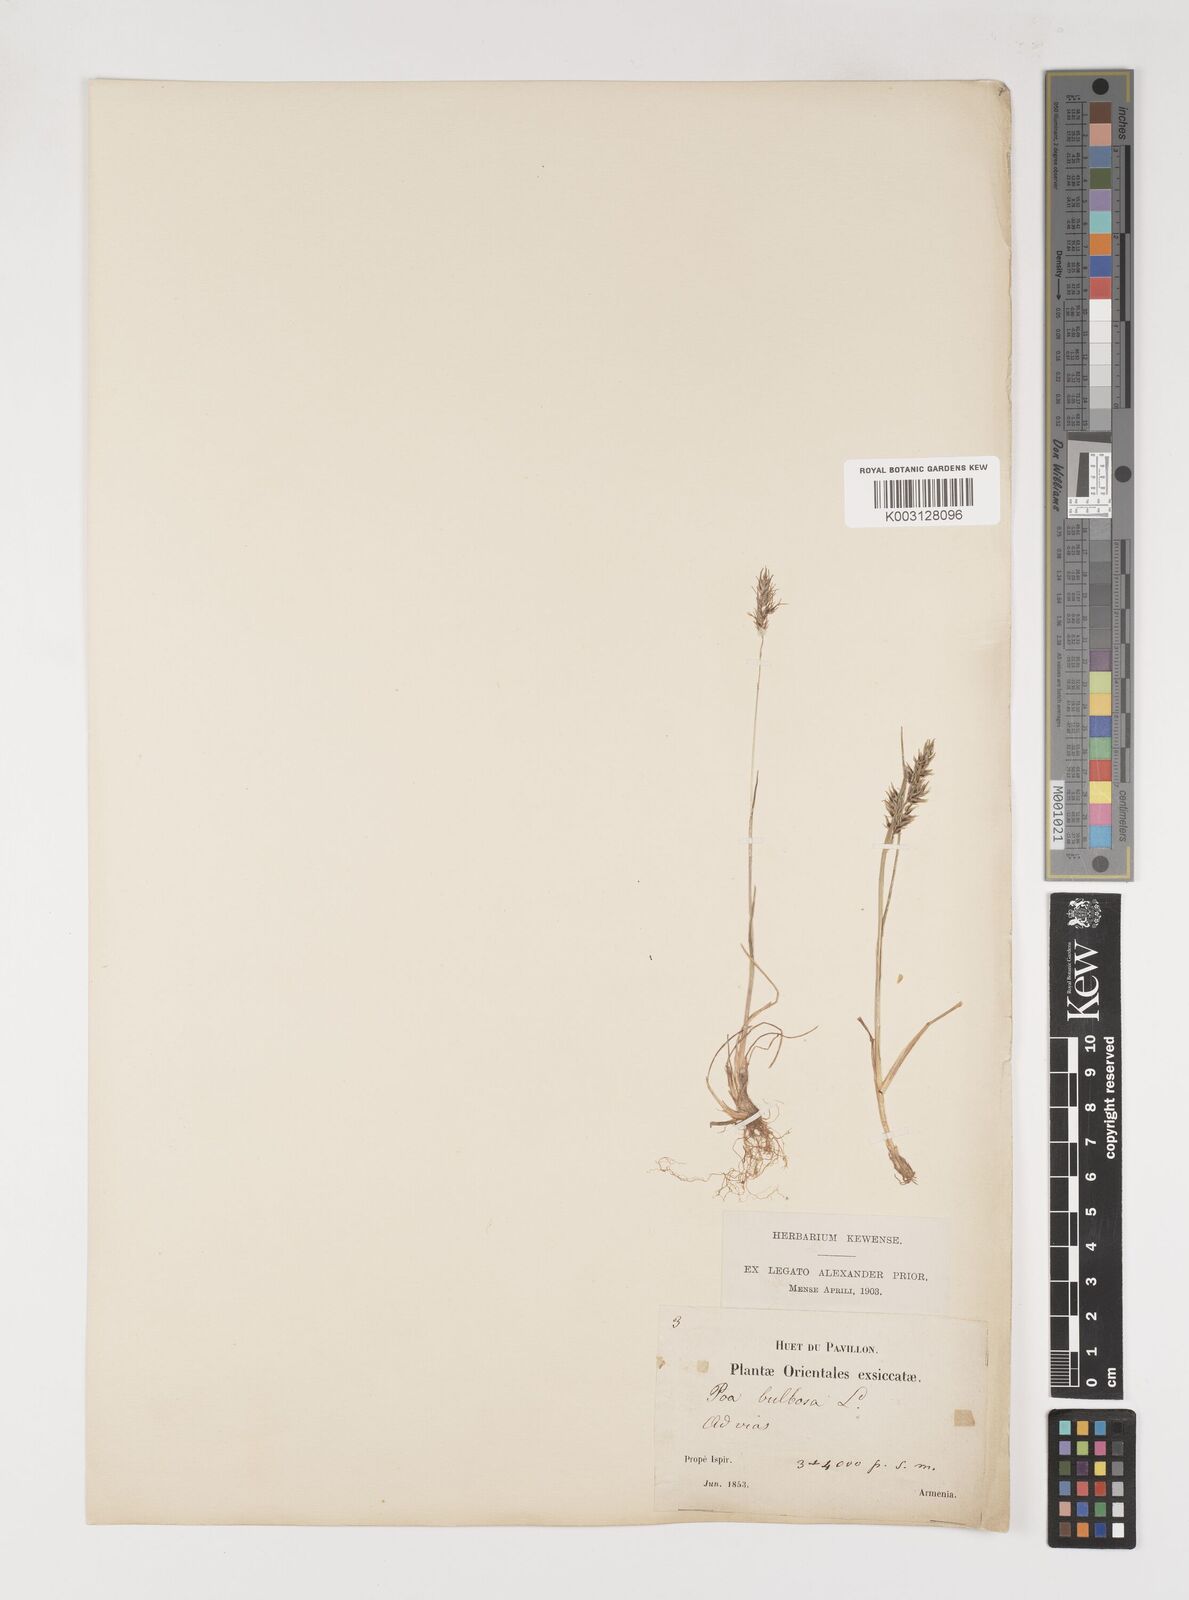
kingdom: Plantae
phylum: Tracheophyta
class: Liliopsida
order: Poales
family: Poaceae
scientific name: Poaceae
